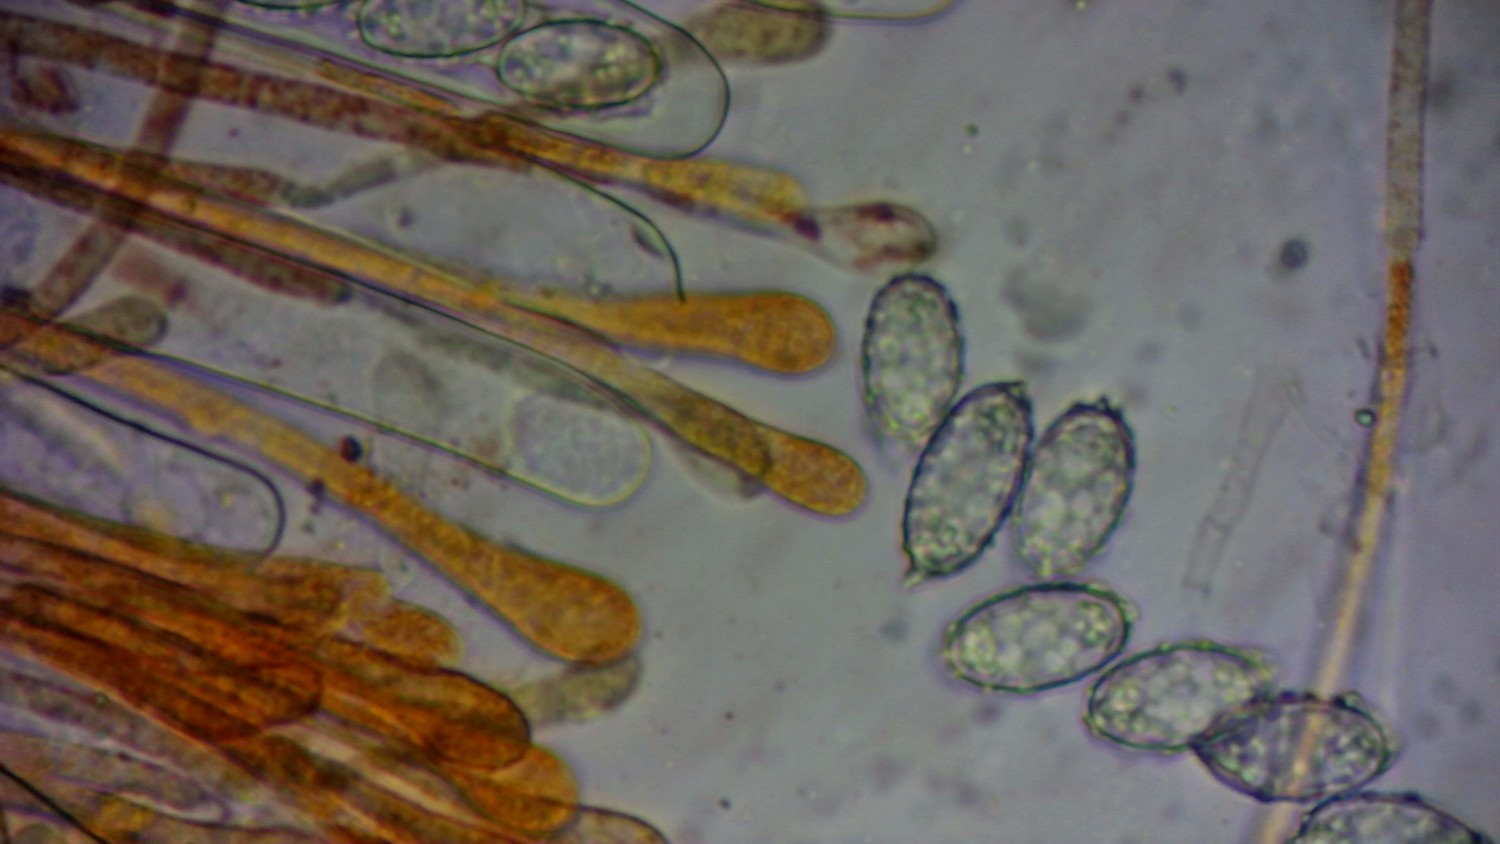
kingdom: Fungi
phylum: Ascomycota
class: Pezizomycetes
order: Pezizales
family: Pyronemataceae
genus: Melastiza
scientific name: Melastiza cornubiensis
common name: mørkrandet rødbæger
